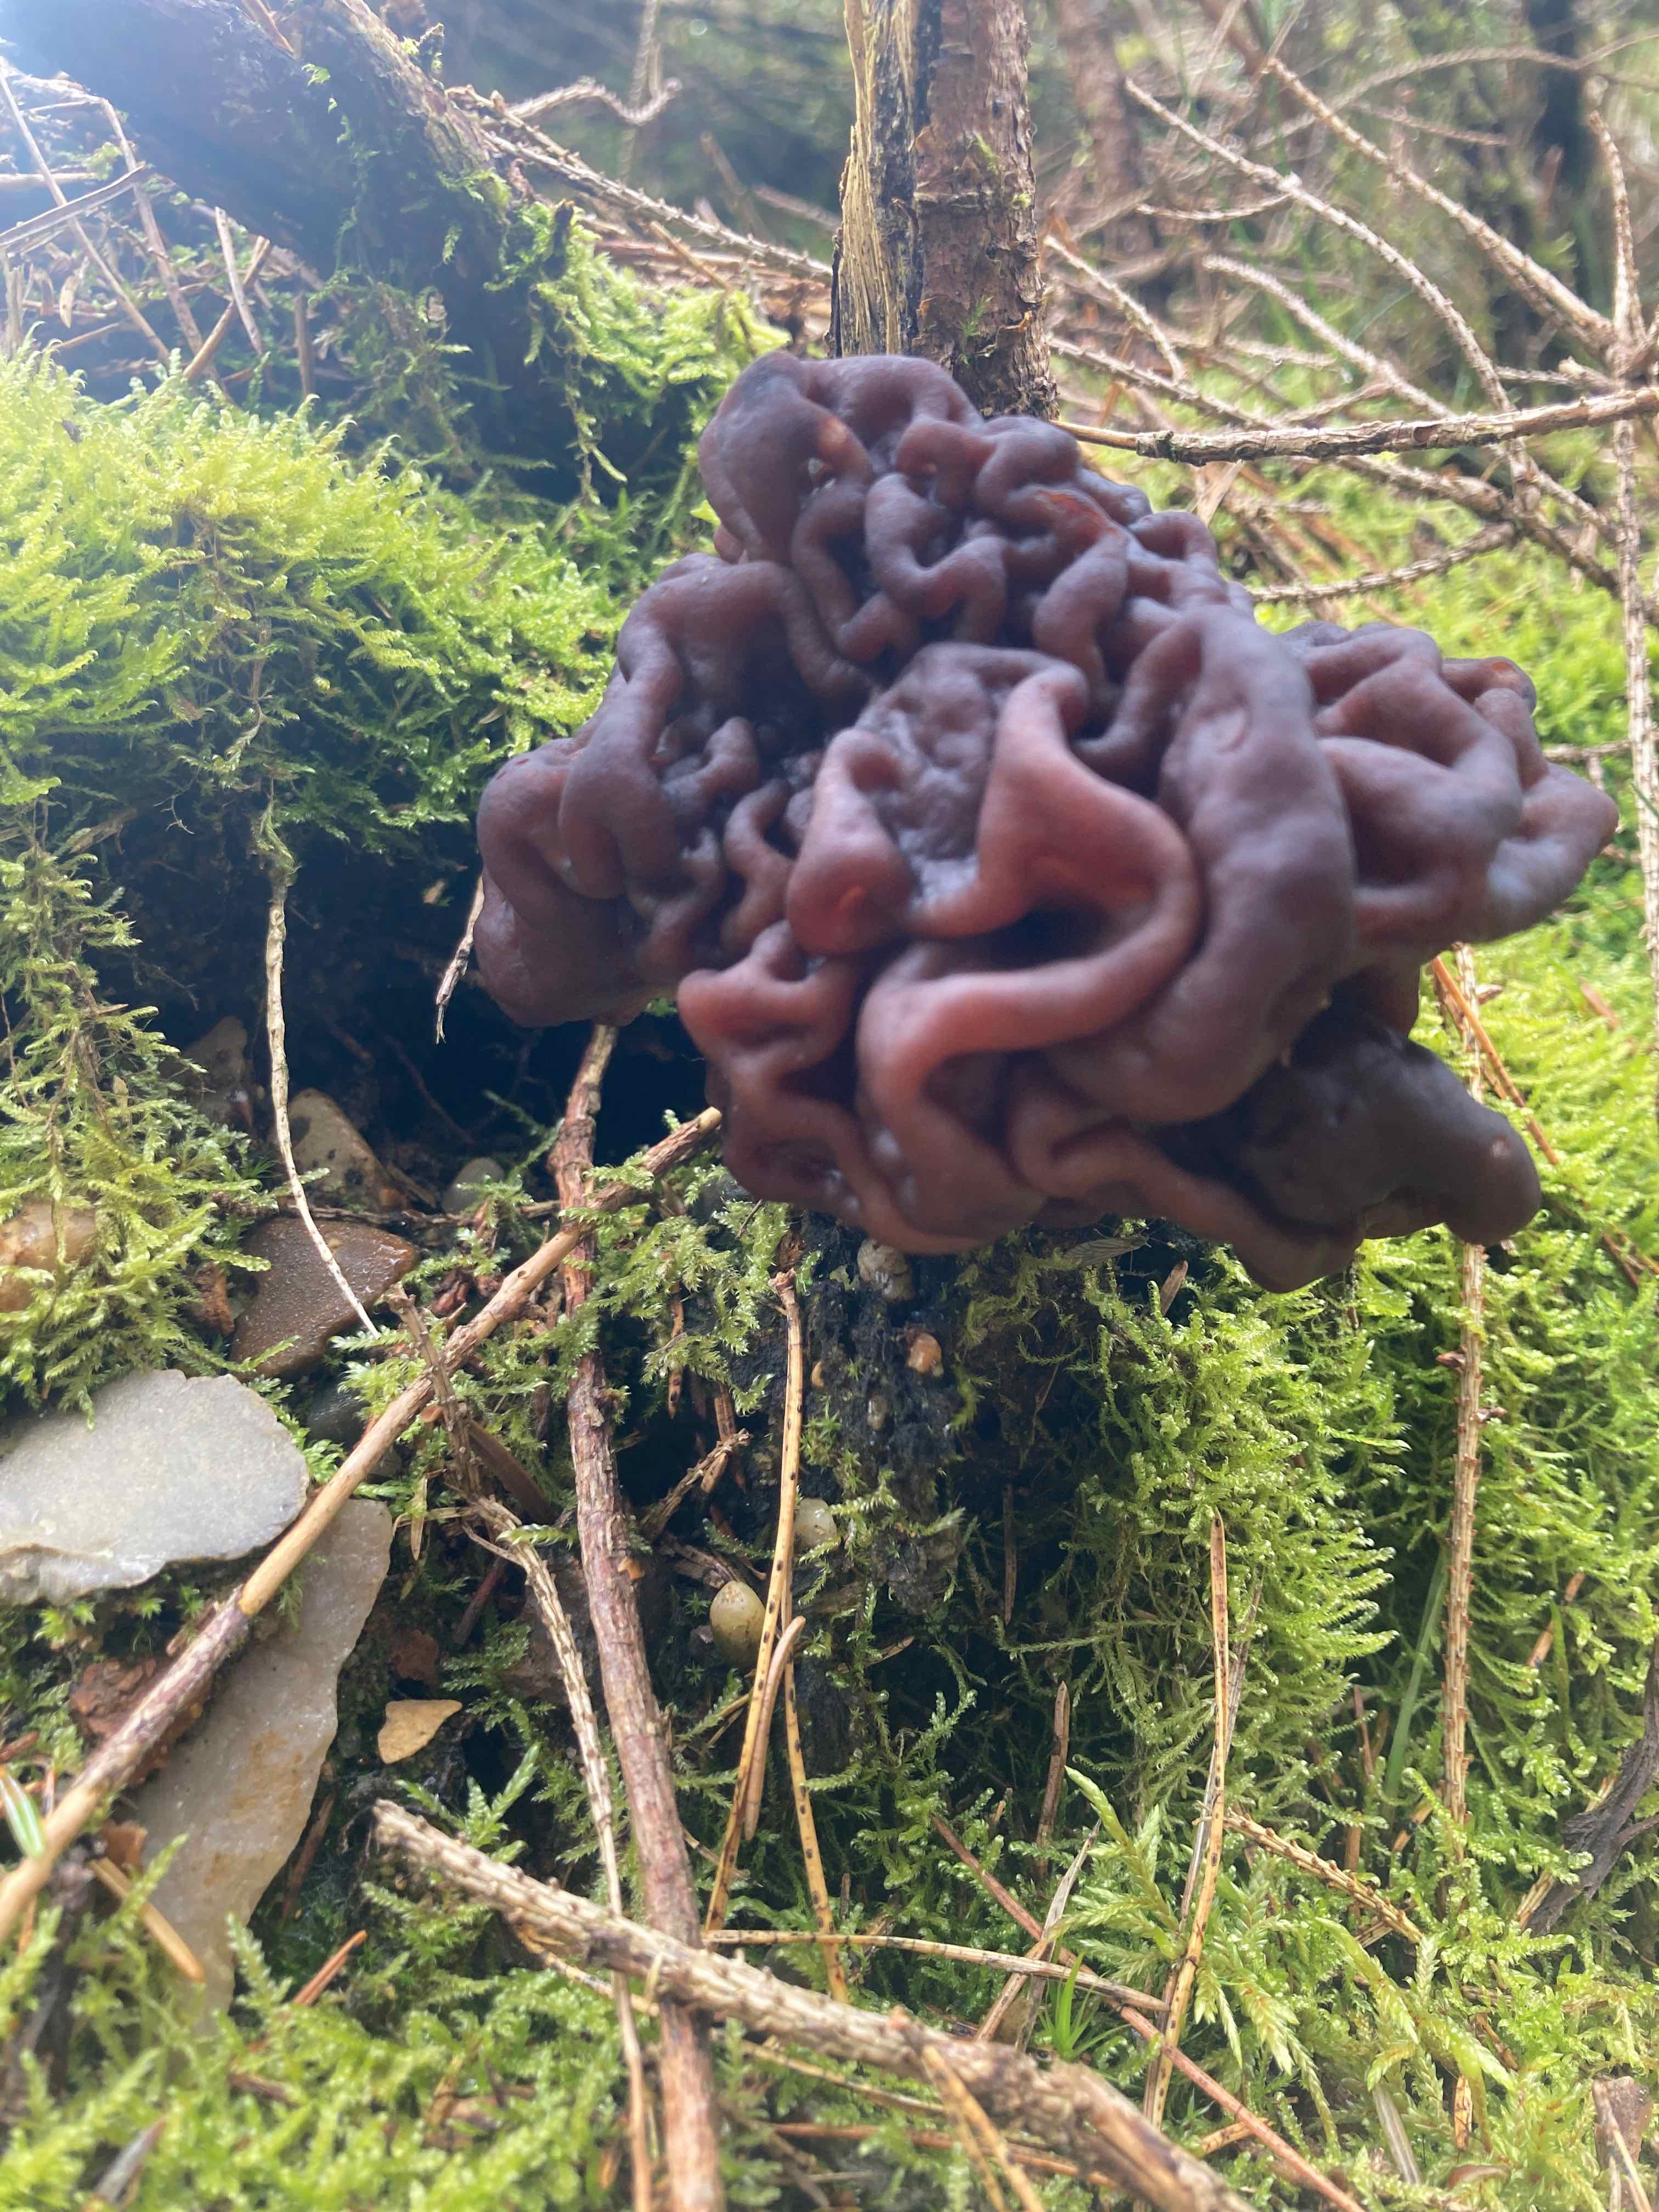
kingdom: Fungi
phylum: Ascomycota
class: Pezizomycetes
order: Pezizales
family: Discinaceae
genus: Gyromitra
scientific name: Gyromitra esculenta
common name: ægte stenmorkel
